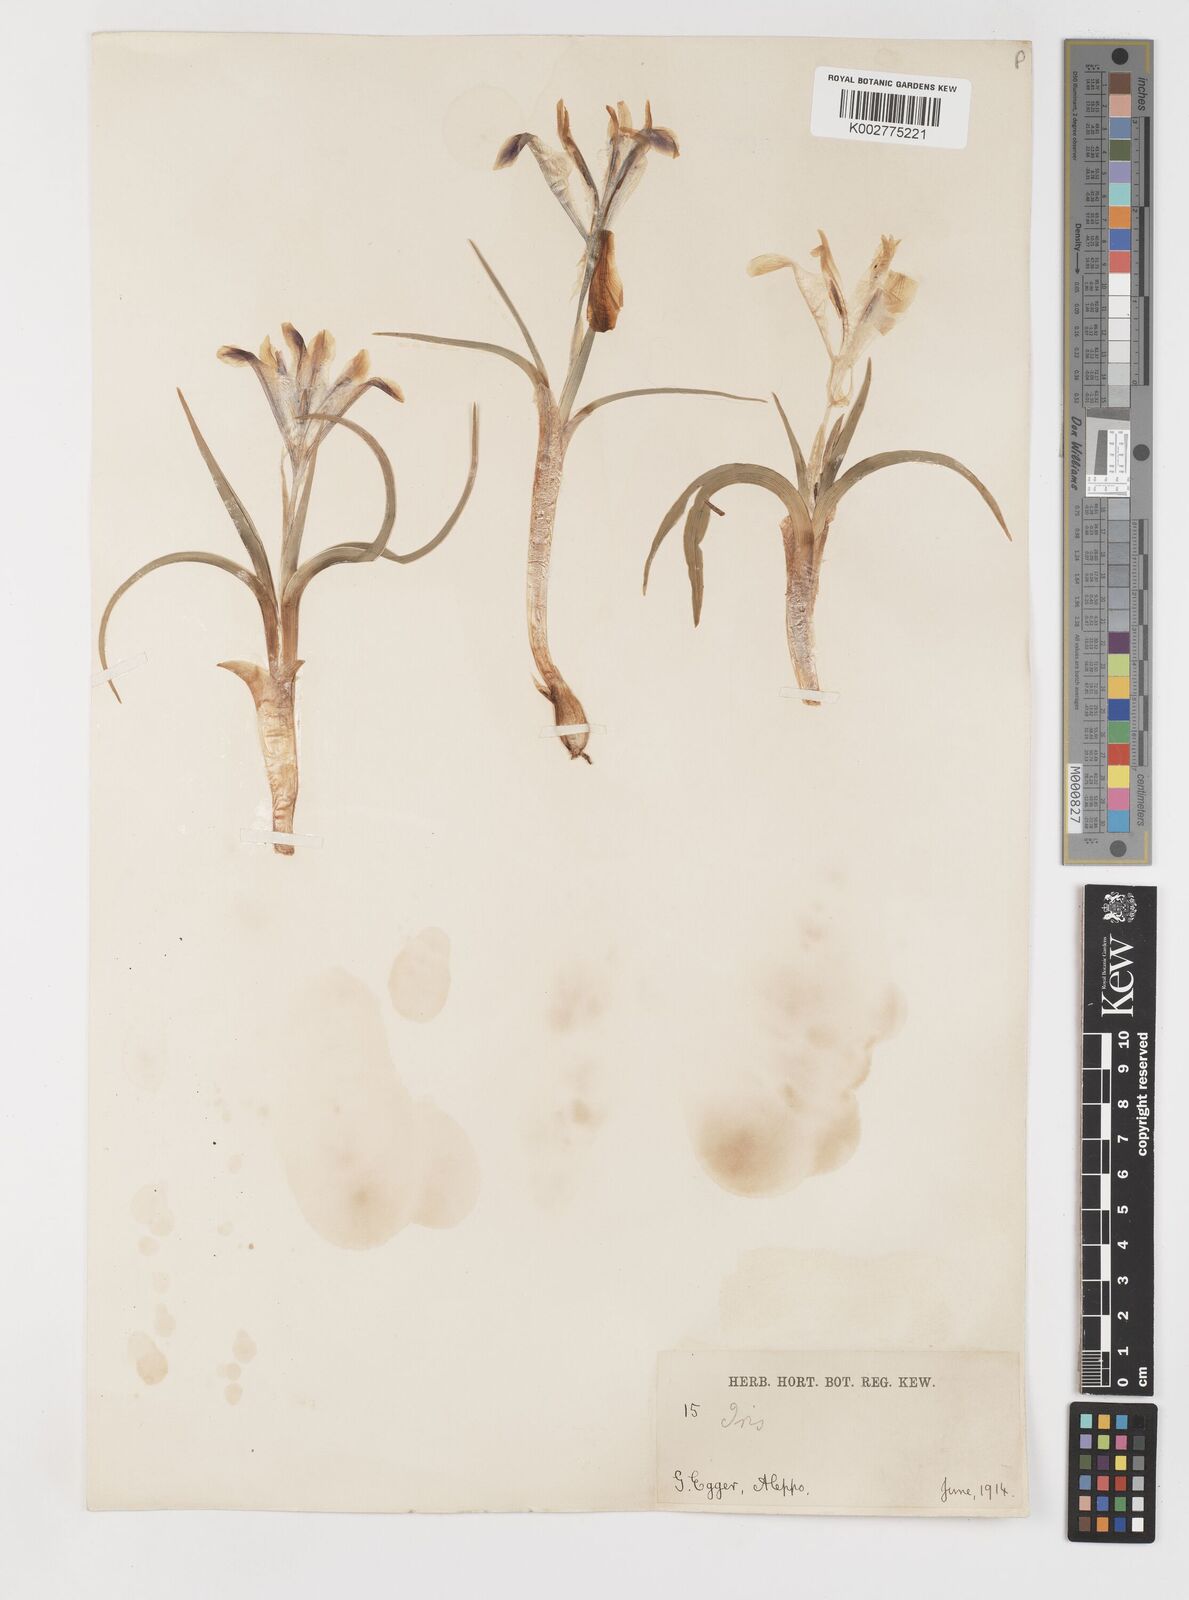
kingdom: Plantae
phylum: Tracheophyta
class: Liliopsida
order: Asparagales
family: Iridaceae
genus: Iris
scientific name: Iris persica
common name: Persian iris
